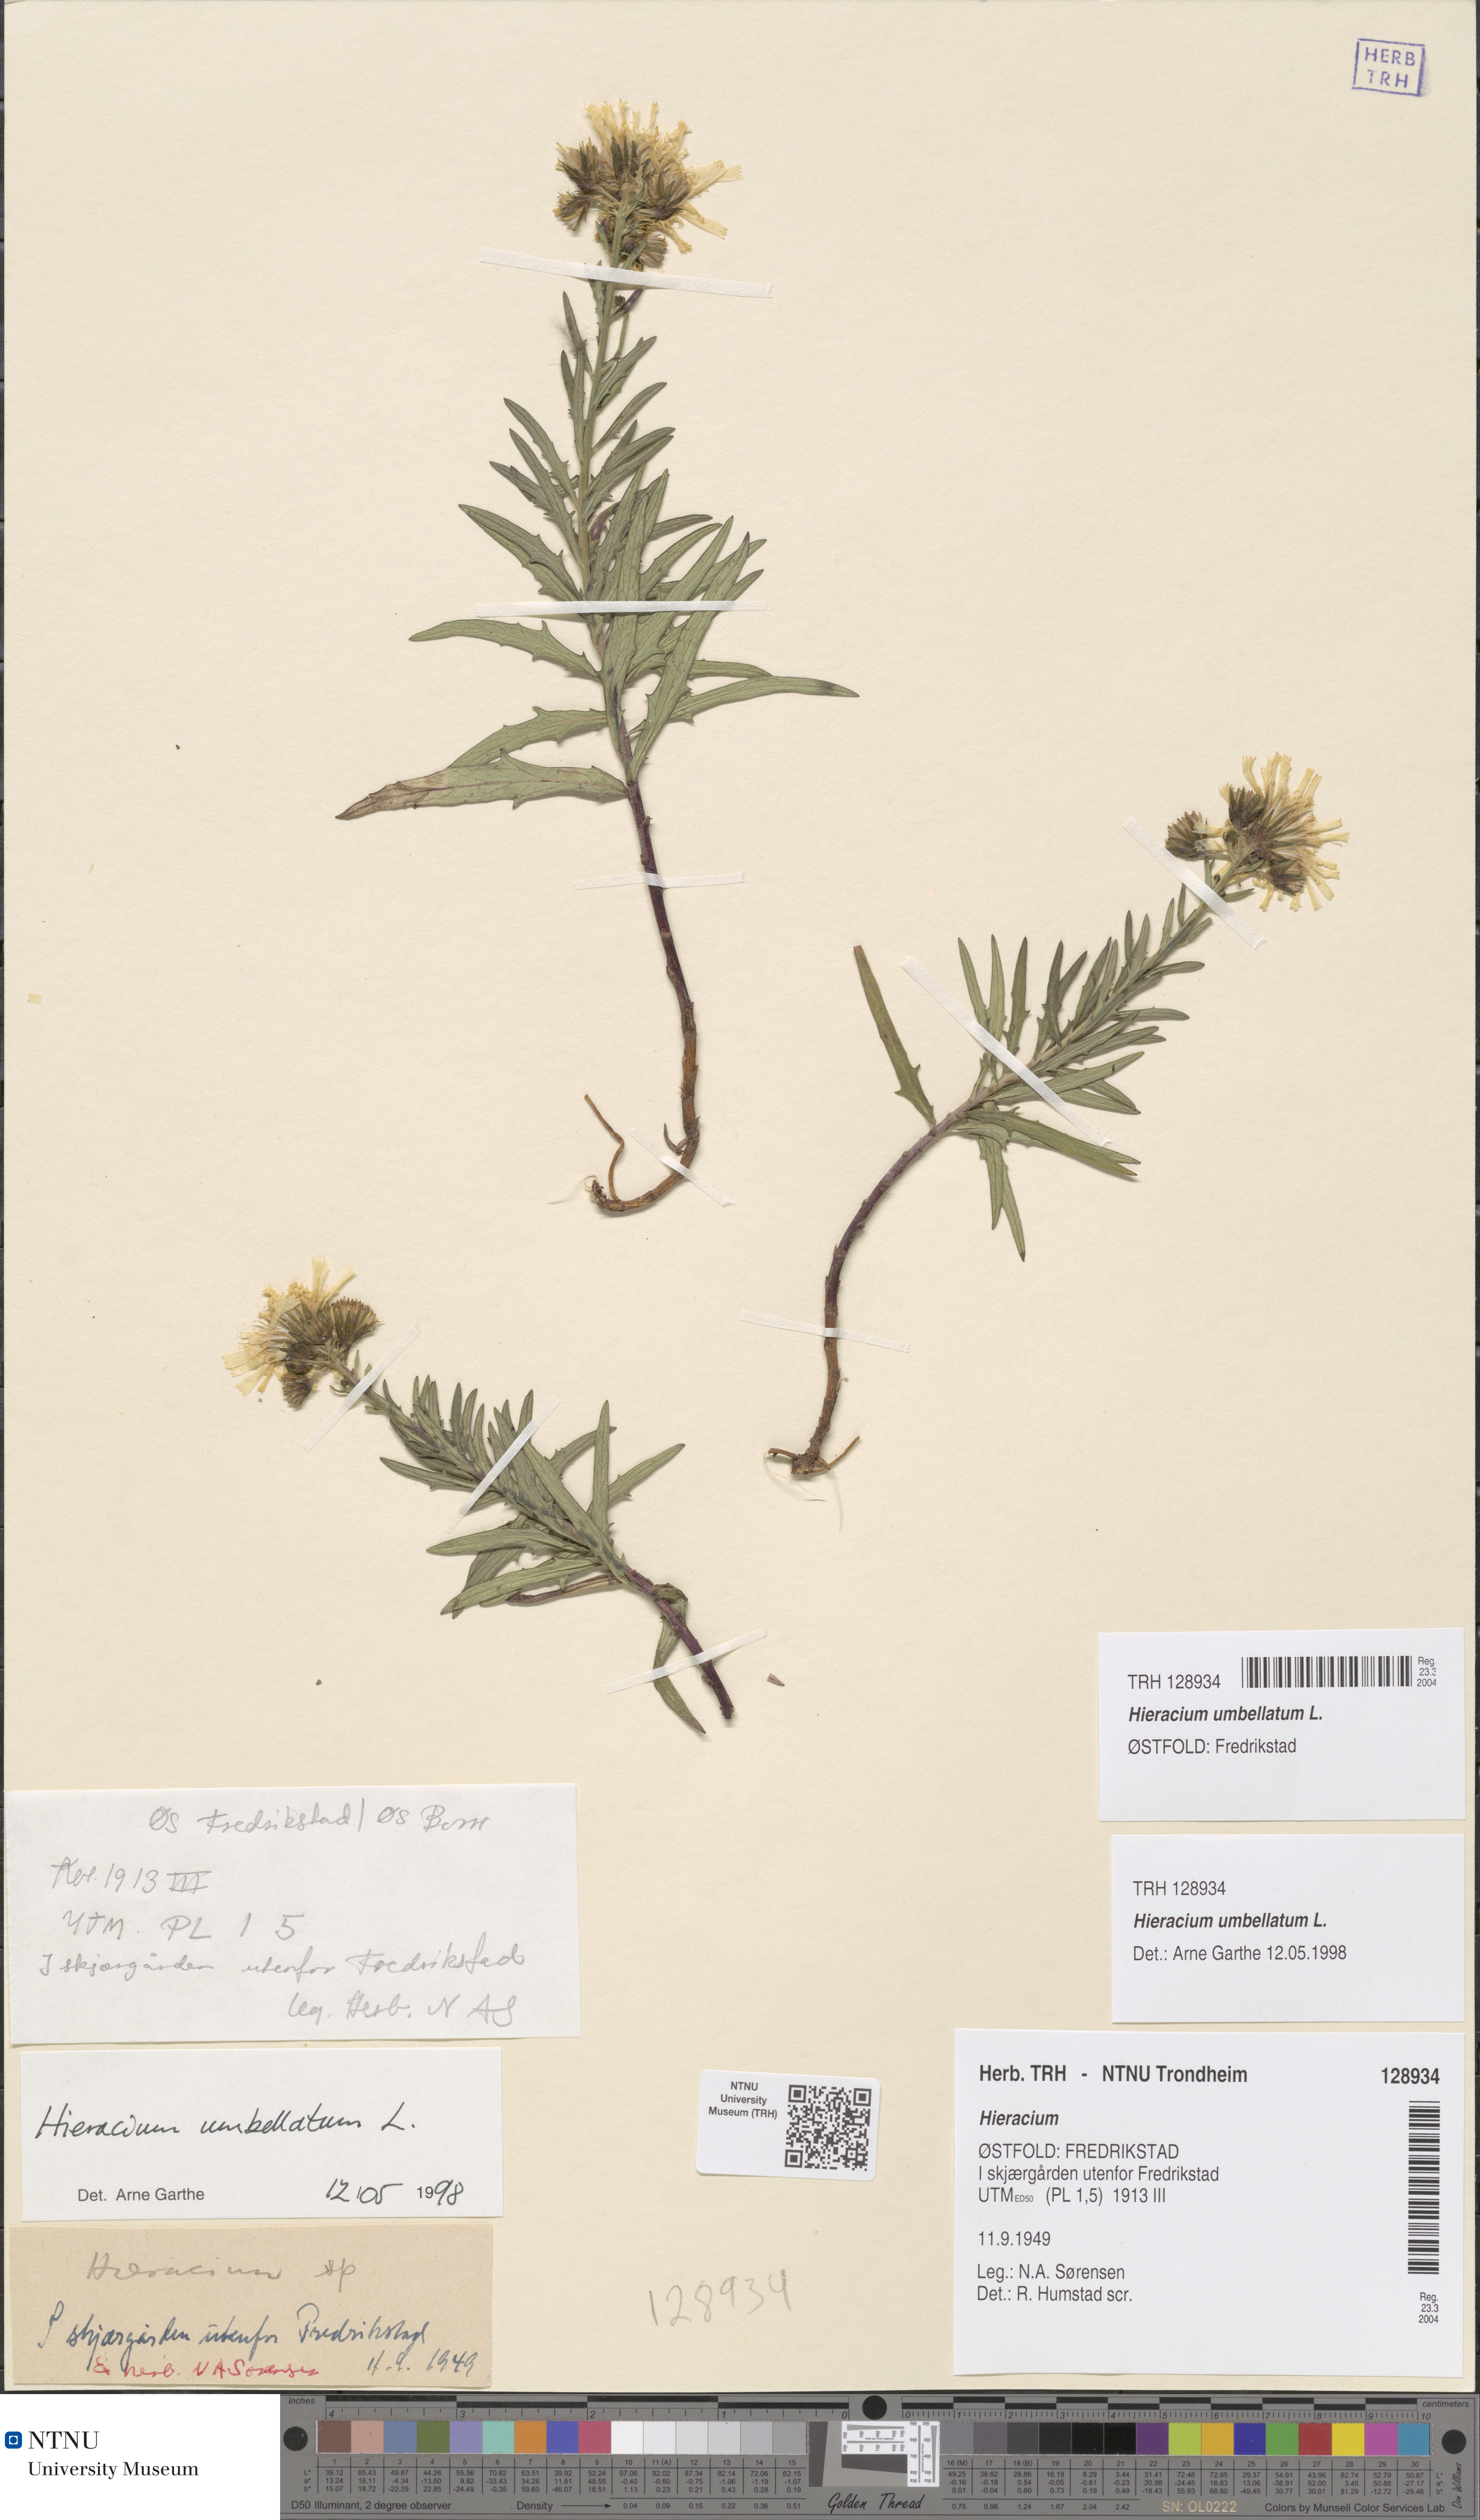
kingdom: Plantae
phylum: Tracheophyta
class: Magnoliopsida
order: Asterales
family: Asteraceae
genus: Hieracium
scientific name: Hieracium umbellatum
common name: Northern hawkweed
